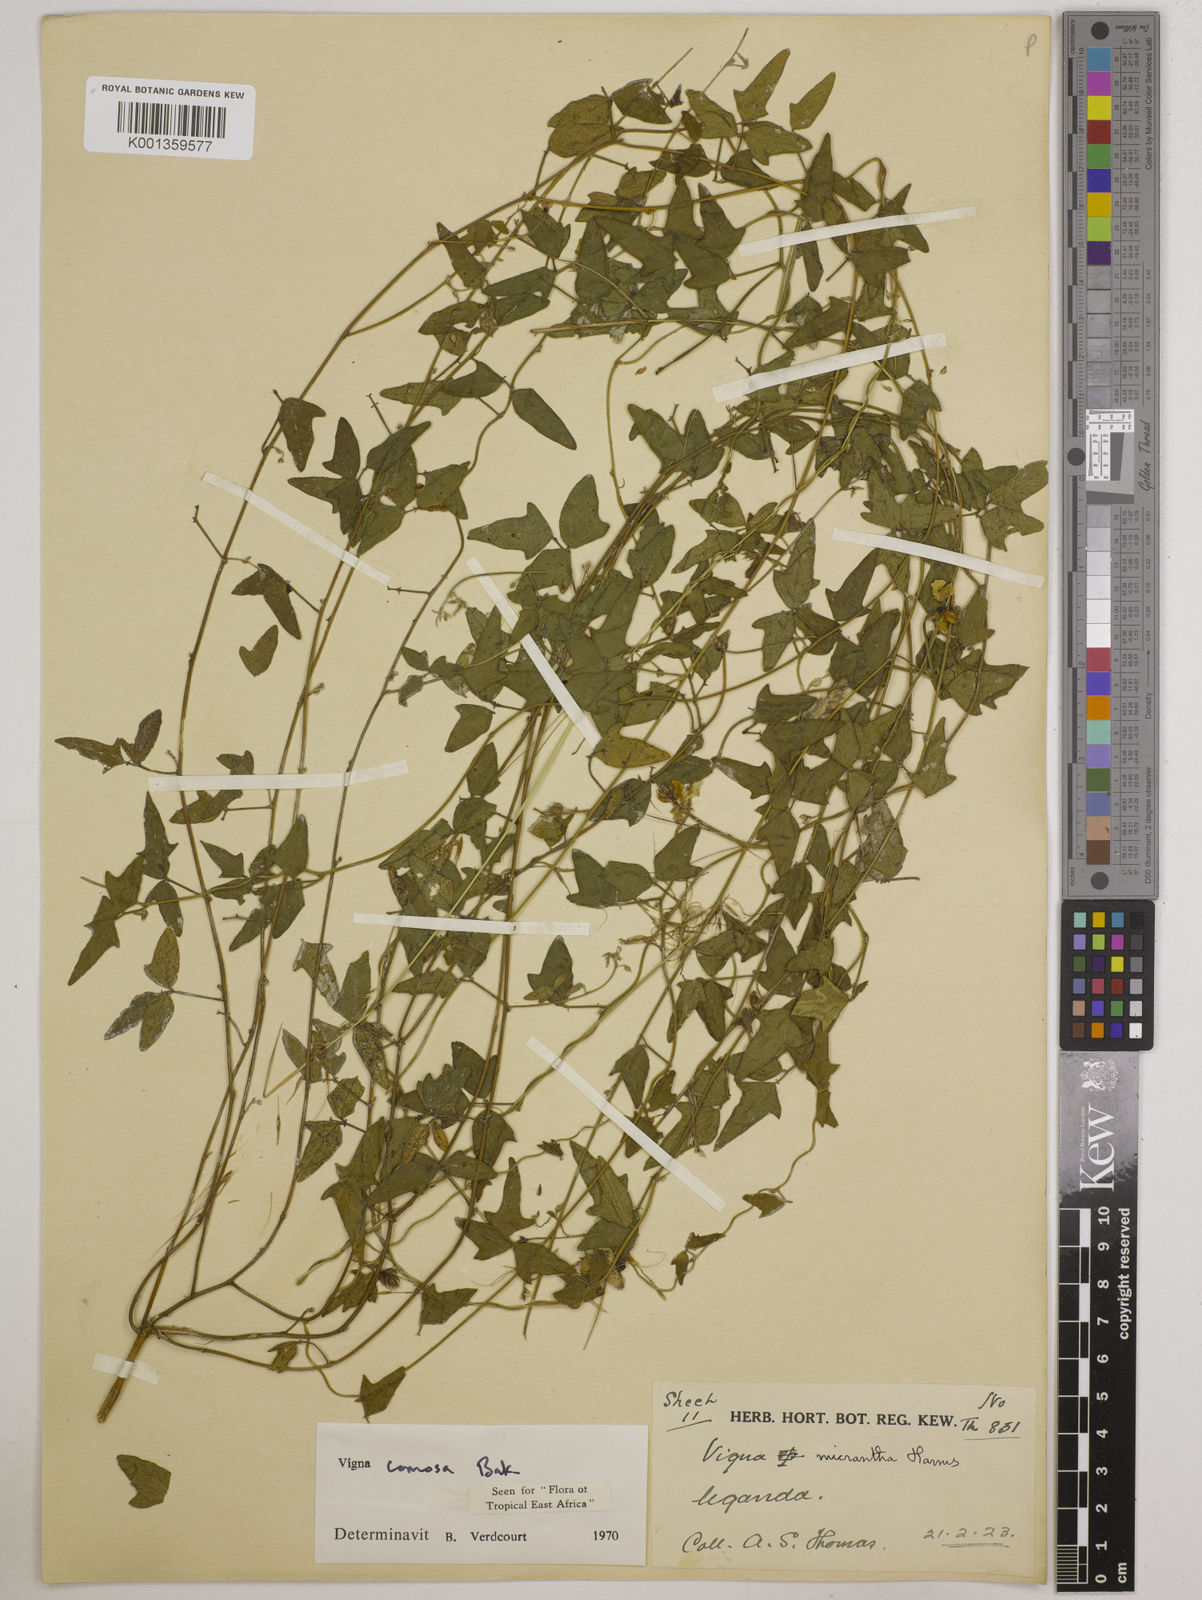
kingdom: Plantae
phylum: Tracheophyta
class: Magnoliopsida
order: Fabales
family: Fabaceae
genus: Vigna
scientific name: Vigna comosa
